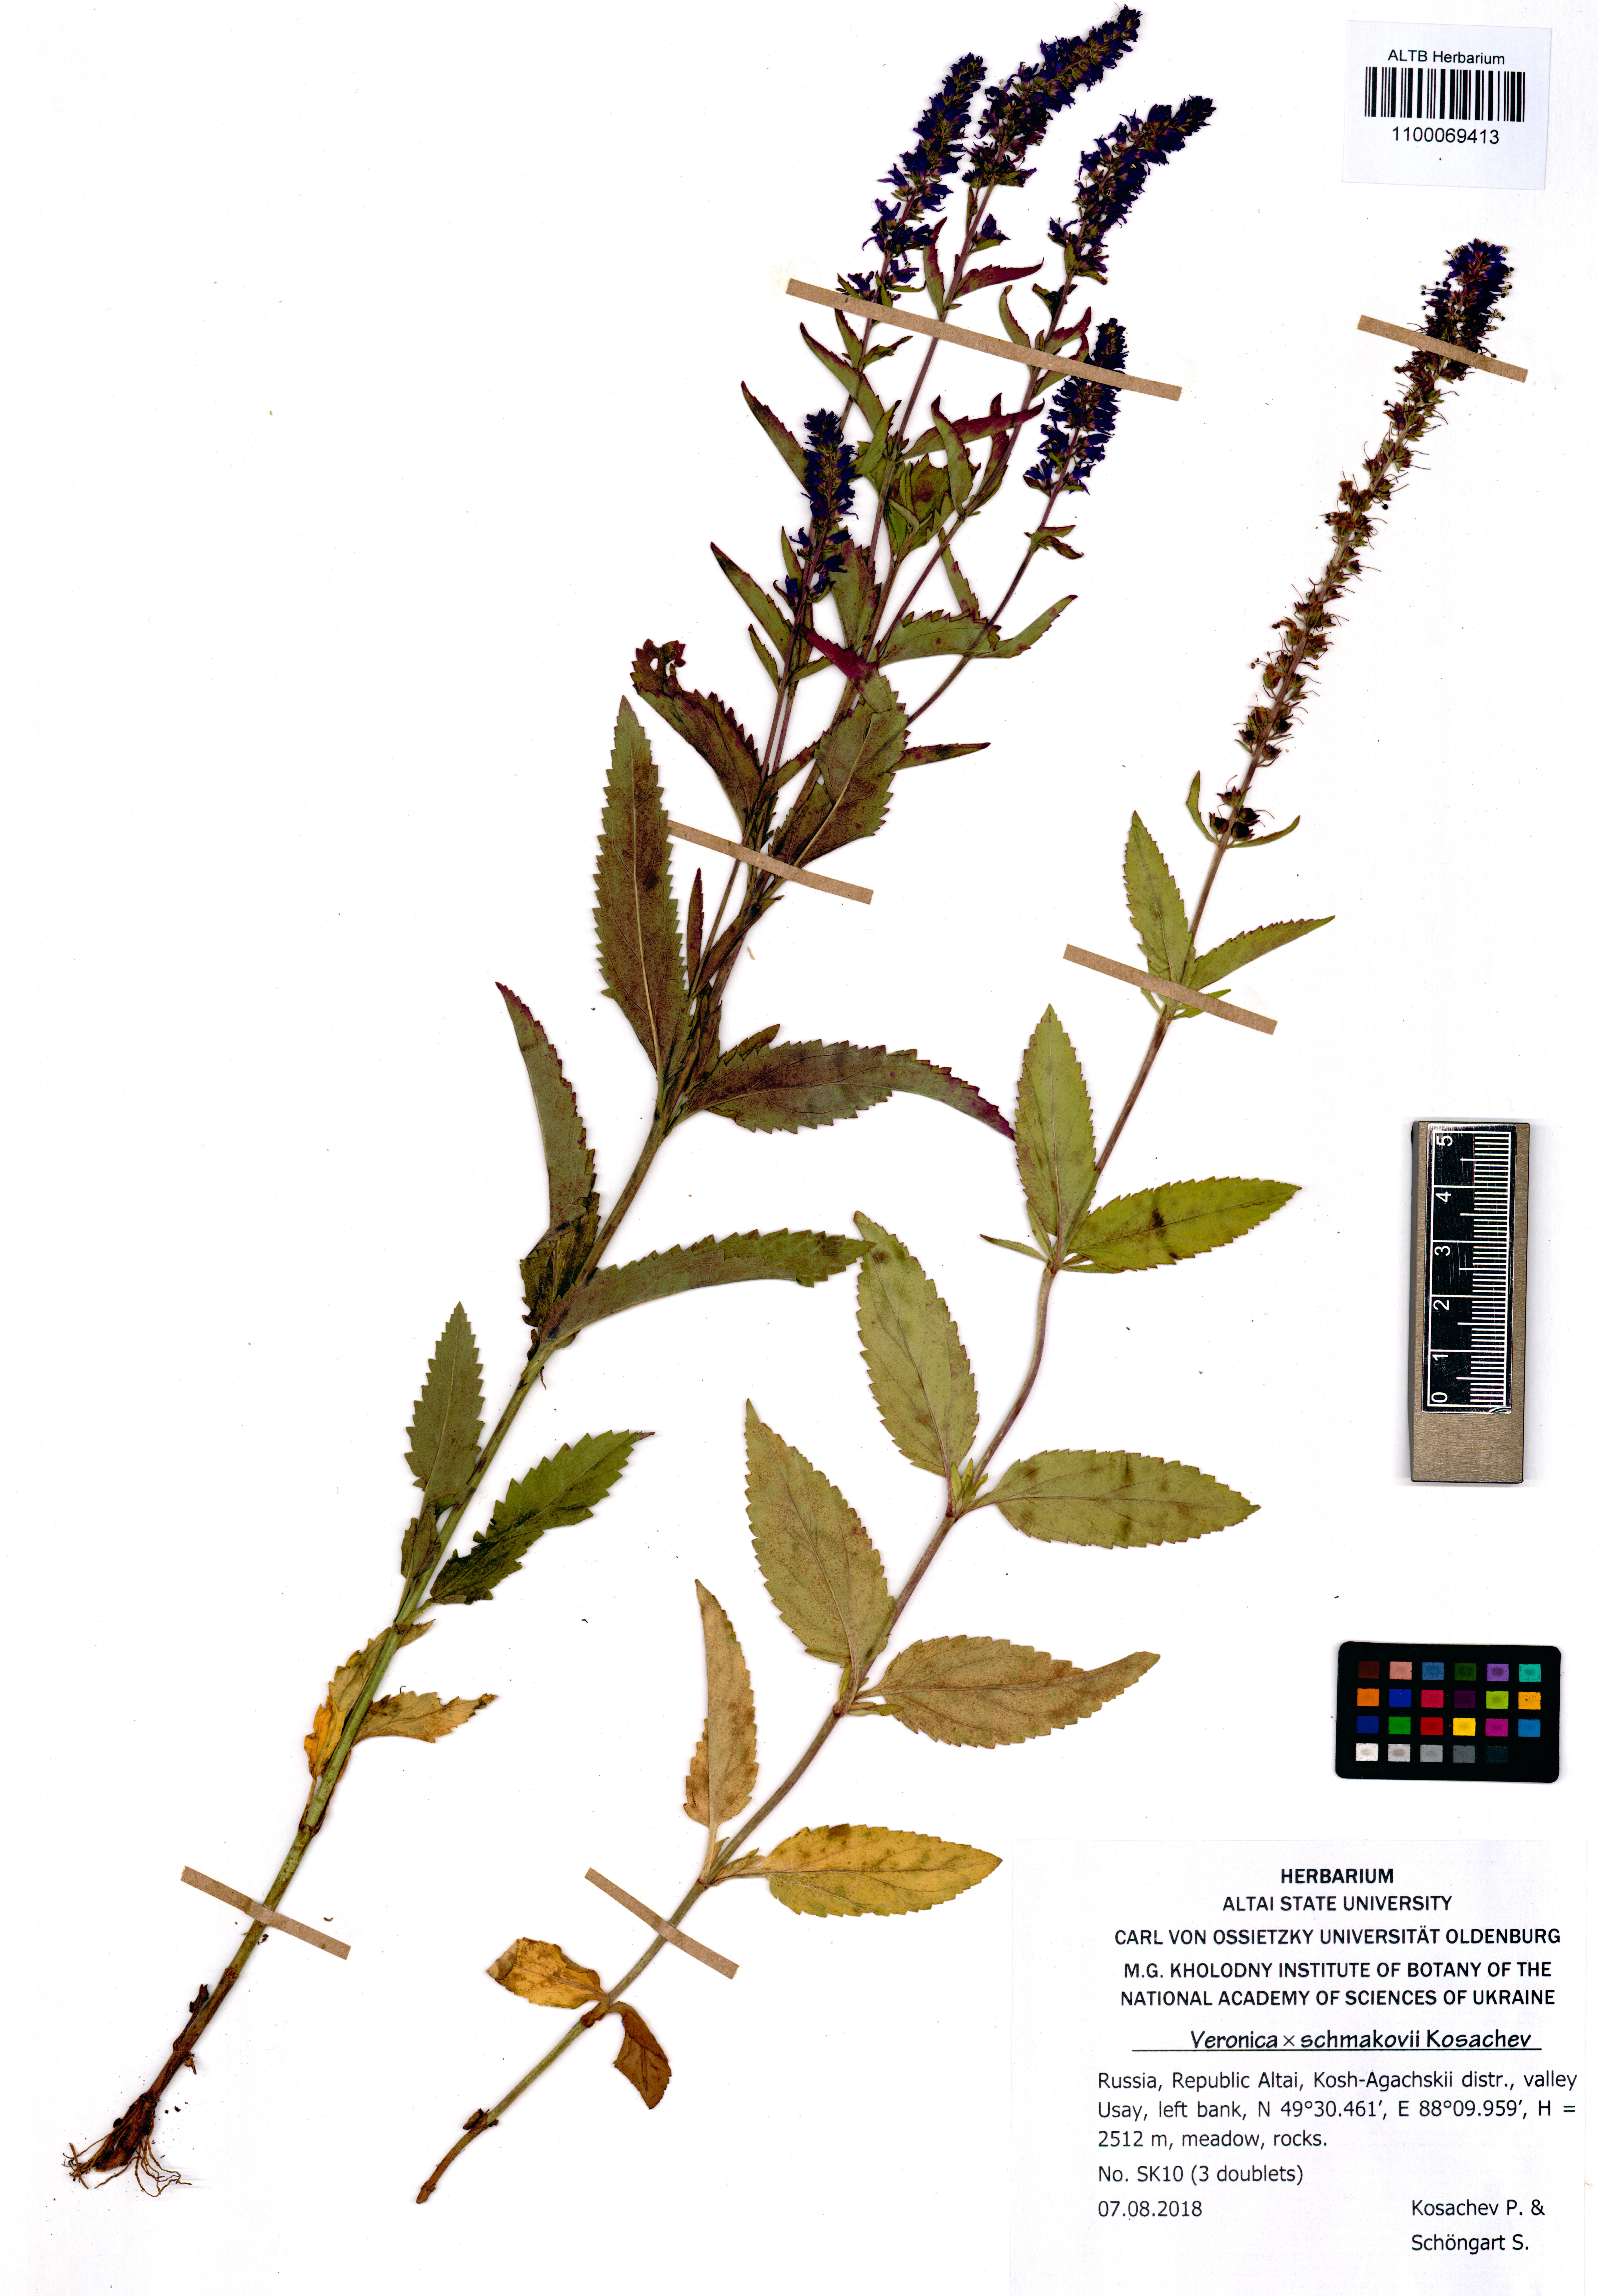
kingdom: Plantae
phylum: Tracheophyta
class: Magnoliopsida
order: Lamiales
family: Plantaginaceae
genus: Veronica
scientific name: Veronica schmakovii
